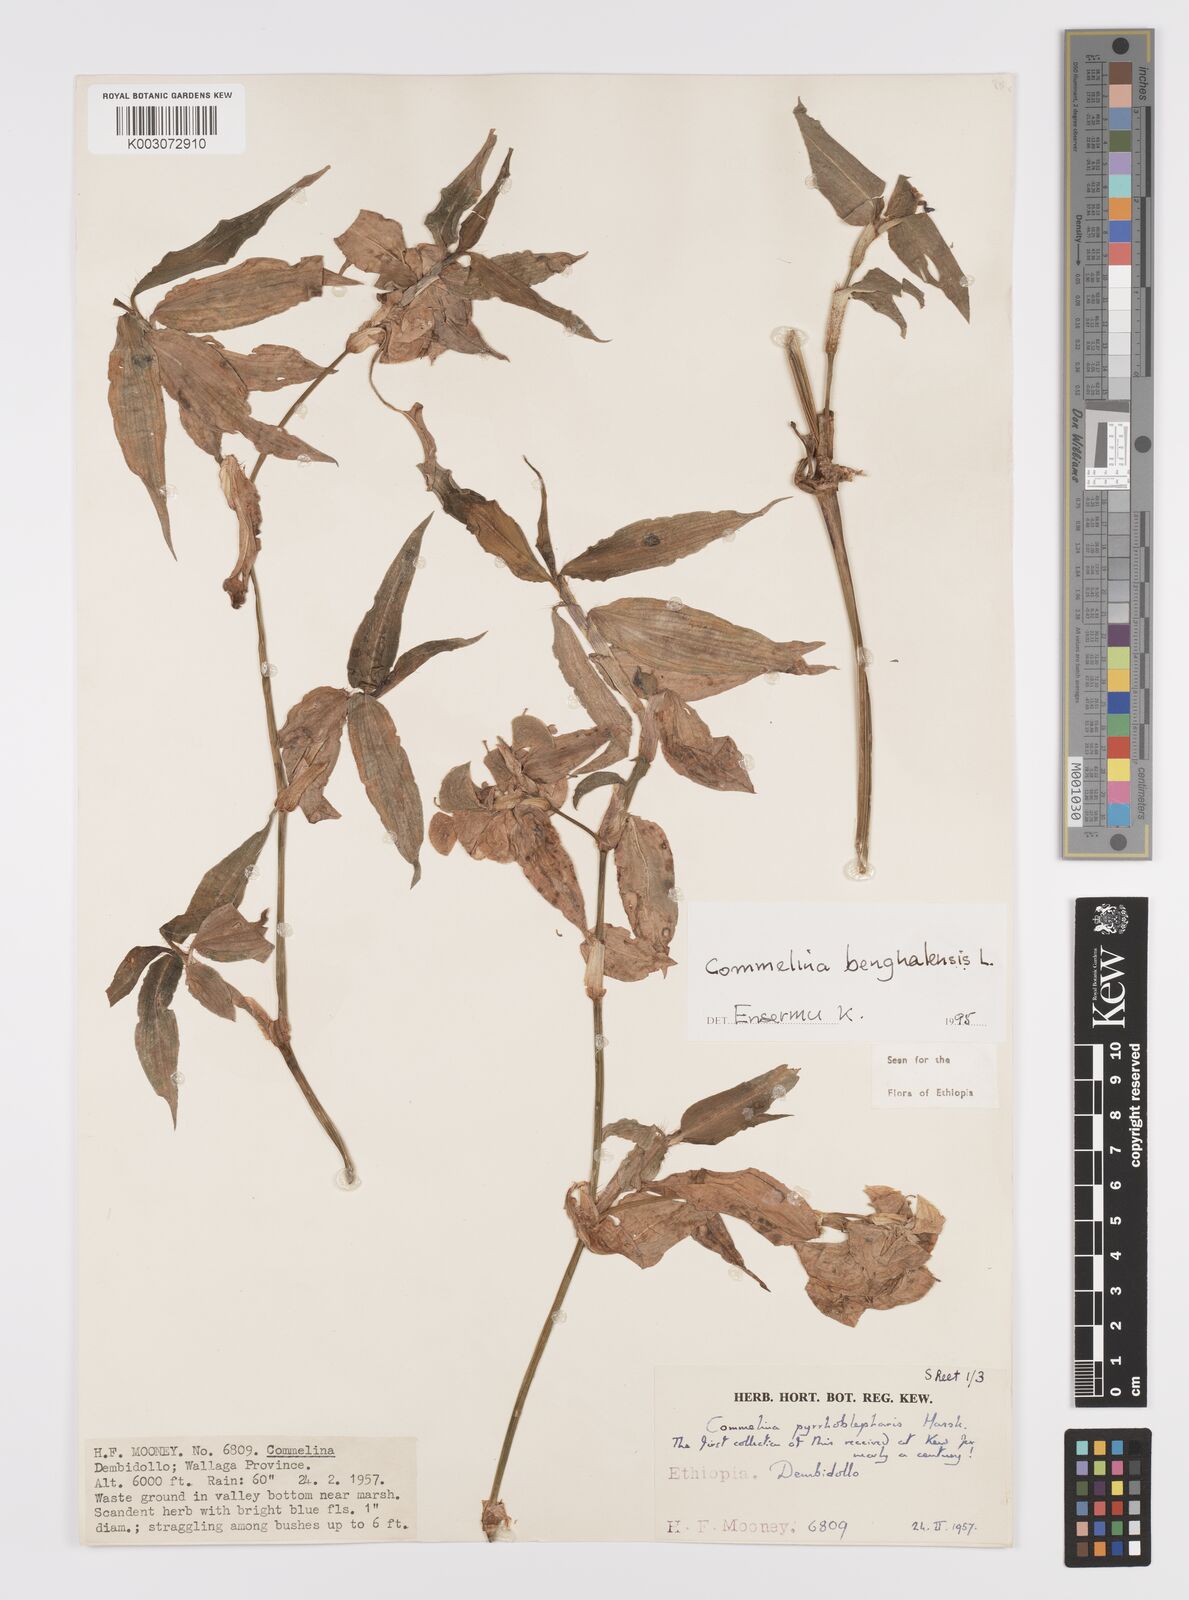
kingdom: Plantae
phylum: Tracheophyta
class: Liliopsida
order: Commelinales
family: Commelinaceae
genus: Commelina
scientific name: Commelina benghalensis
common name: Jio
